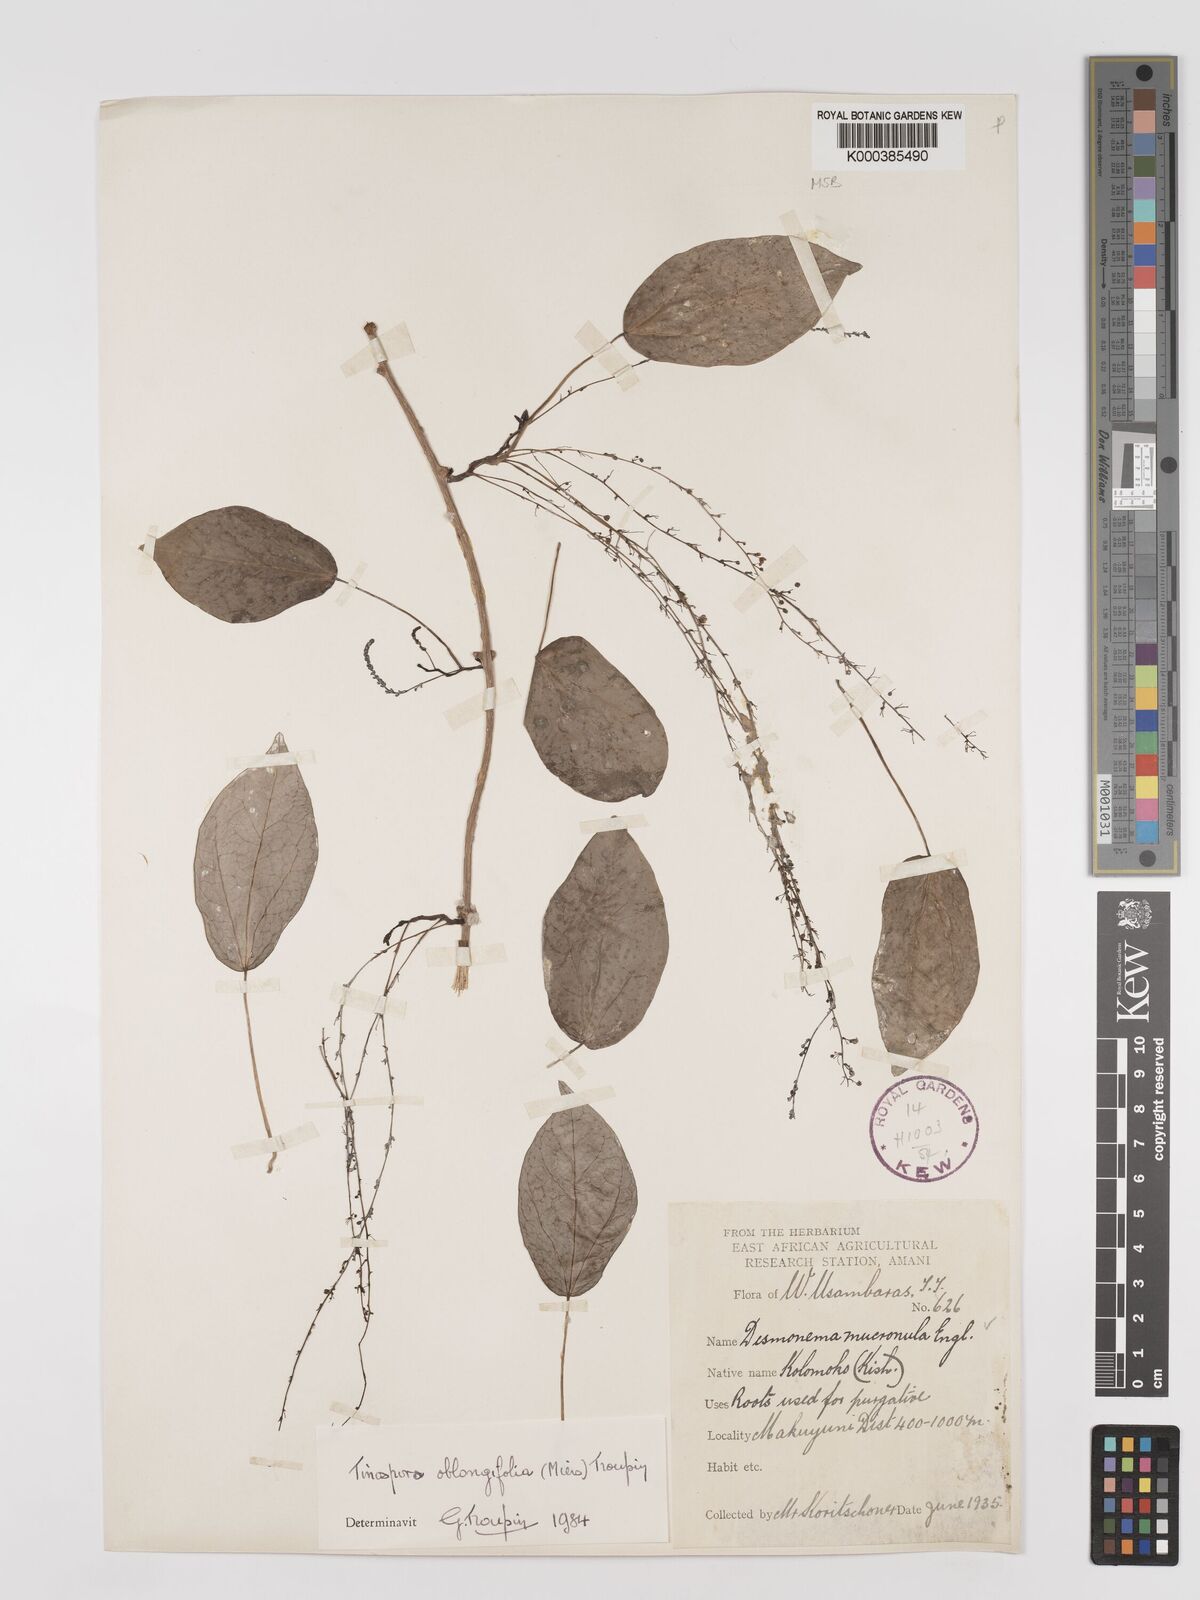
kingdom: Plantae
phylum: Tracheophyta
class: Magnoliopsida
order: Ranunculales
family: Menispermaceae
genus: Tinospora
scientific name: Tinospora oblongifolia
